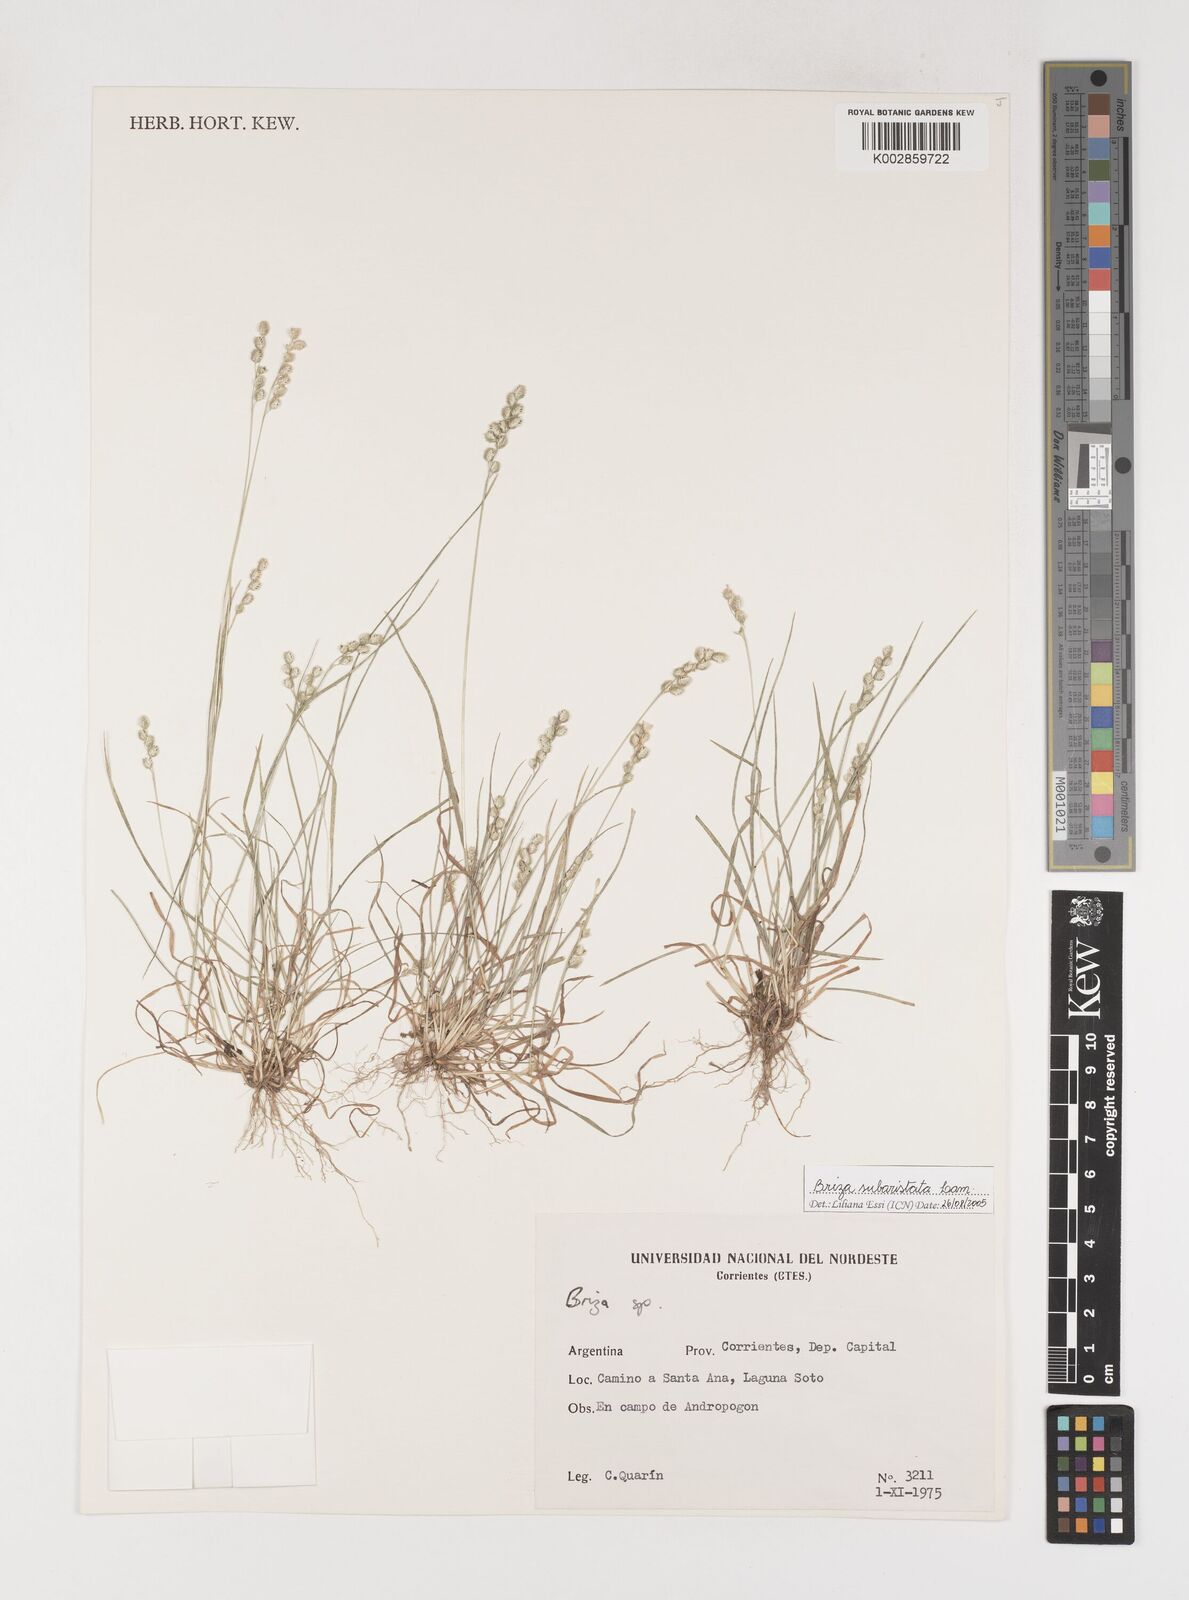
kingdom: Plantae
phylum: Tracheophyta
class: Liliopsida
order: Poales
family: Poaceae
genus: Chascolytrum
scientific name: Chascolytrum subaristatum
